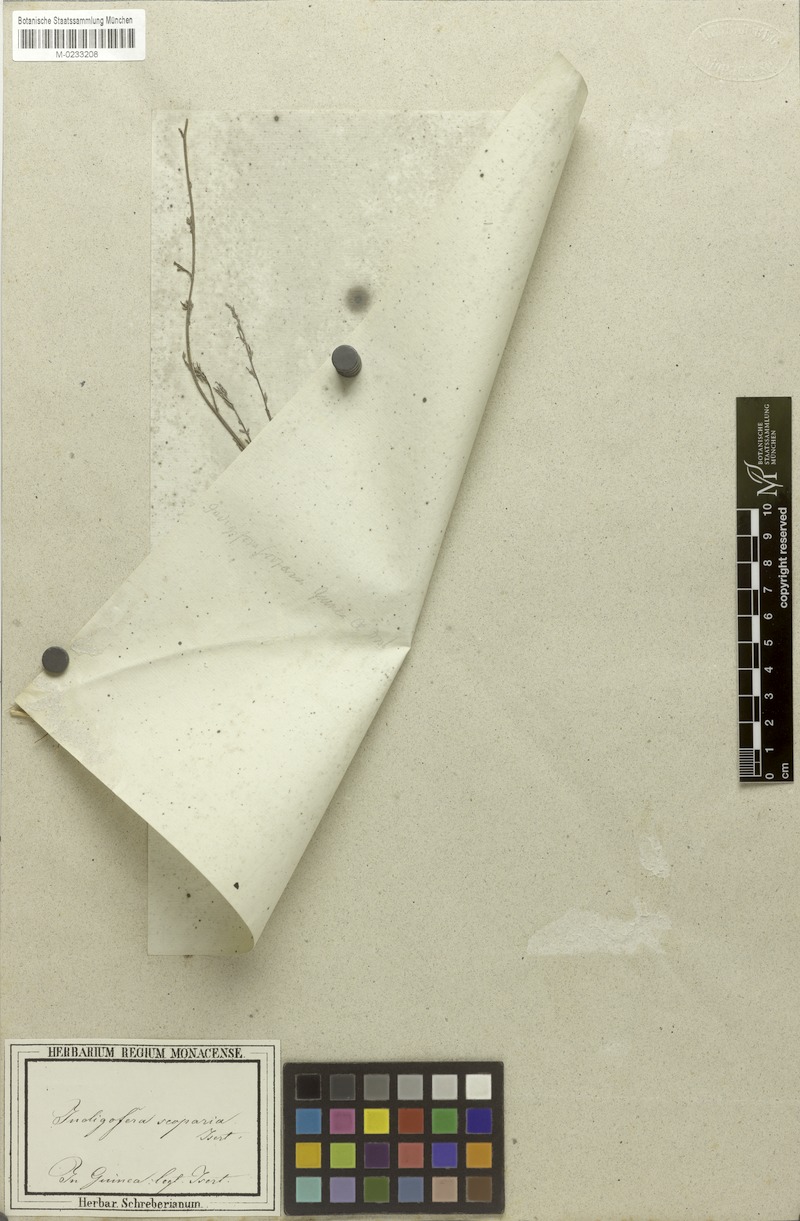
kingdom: Plantae
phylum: Tracheophyta
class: Magnoliopsida
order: Fabales
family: Fabaceae
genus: Indigofera
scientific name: Indigofera senegalensis
